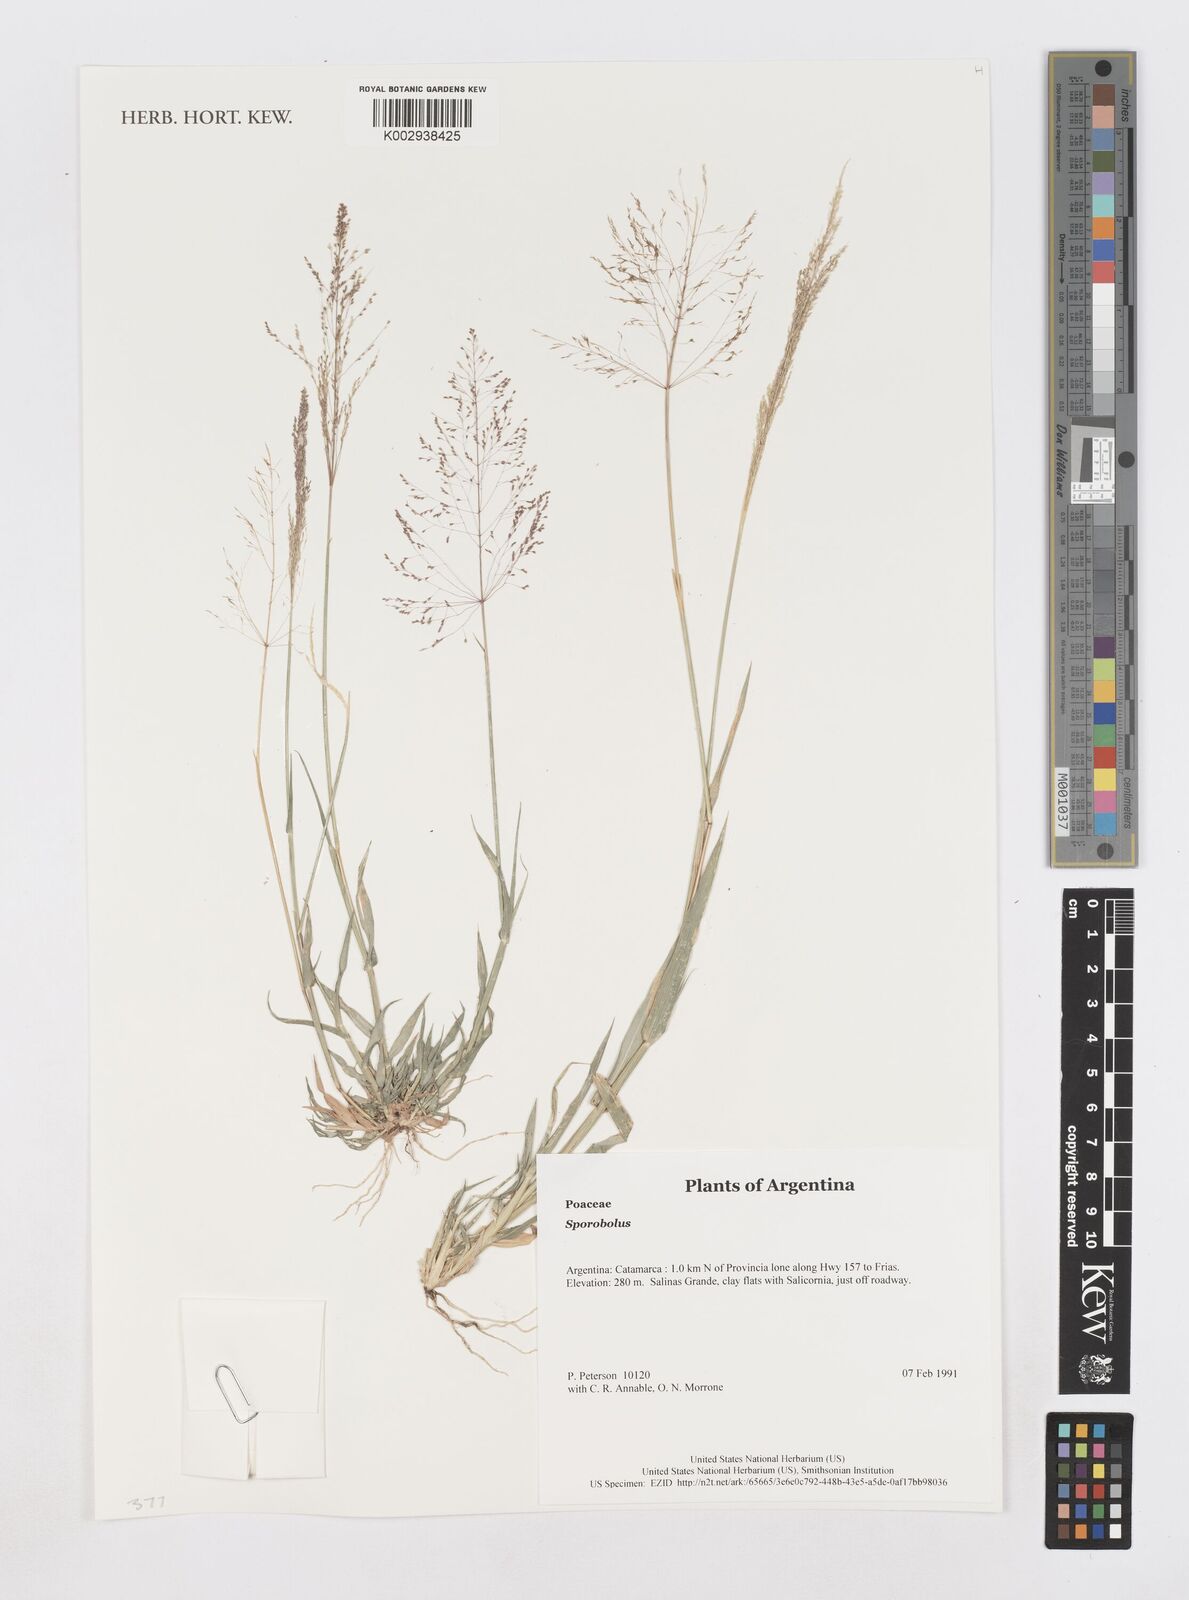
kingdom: Plantae
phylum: Tracheophyta
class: Liliopsida
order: Poales
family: Poaceae
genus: Sporobolus
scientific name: Sporobolus
